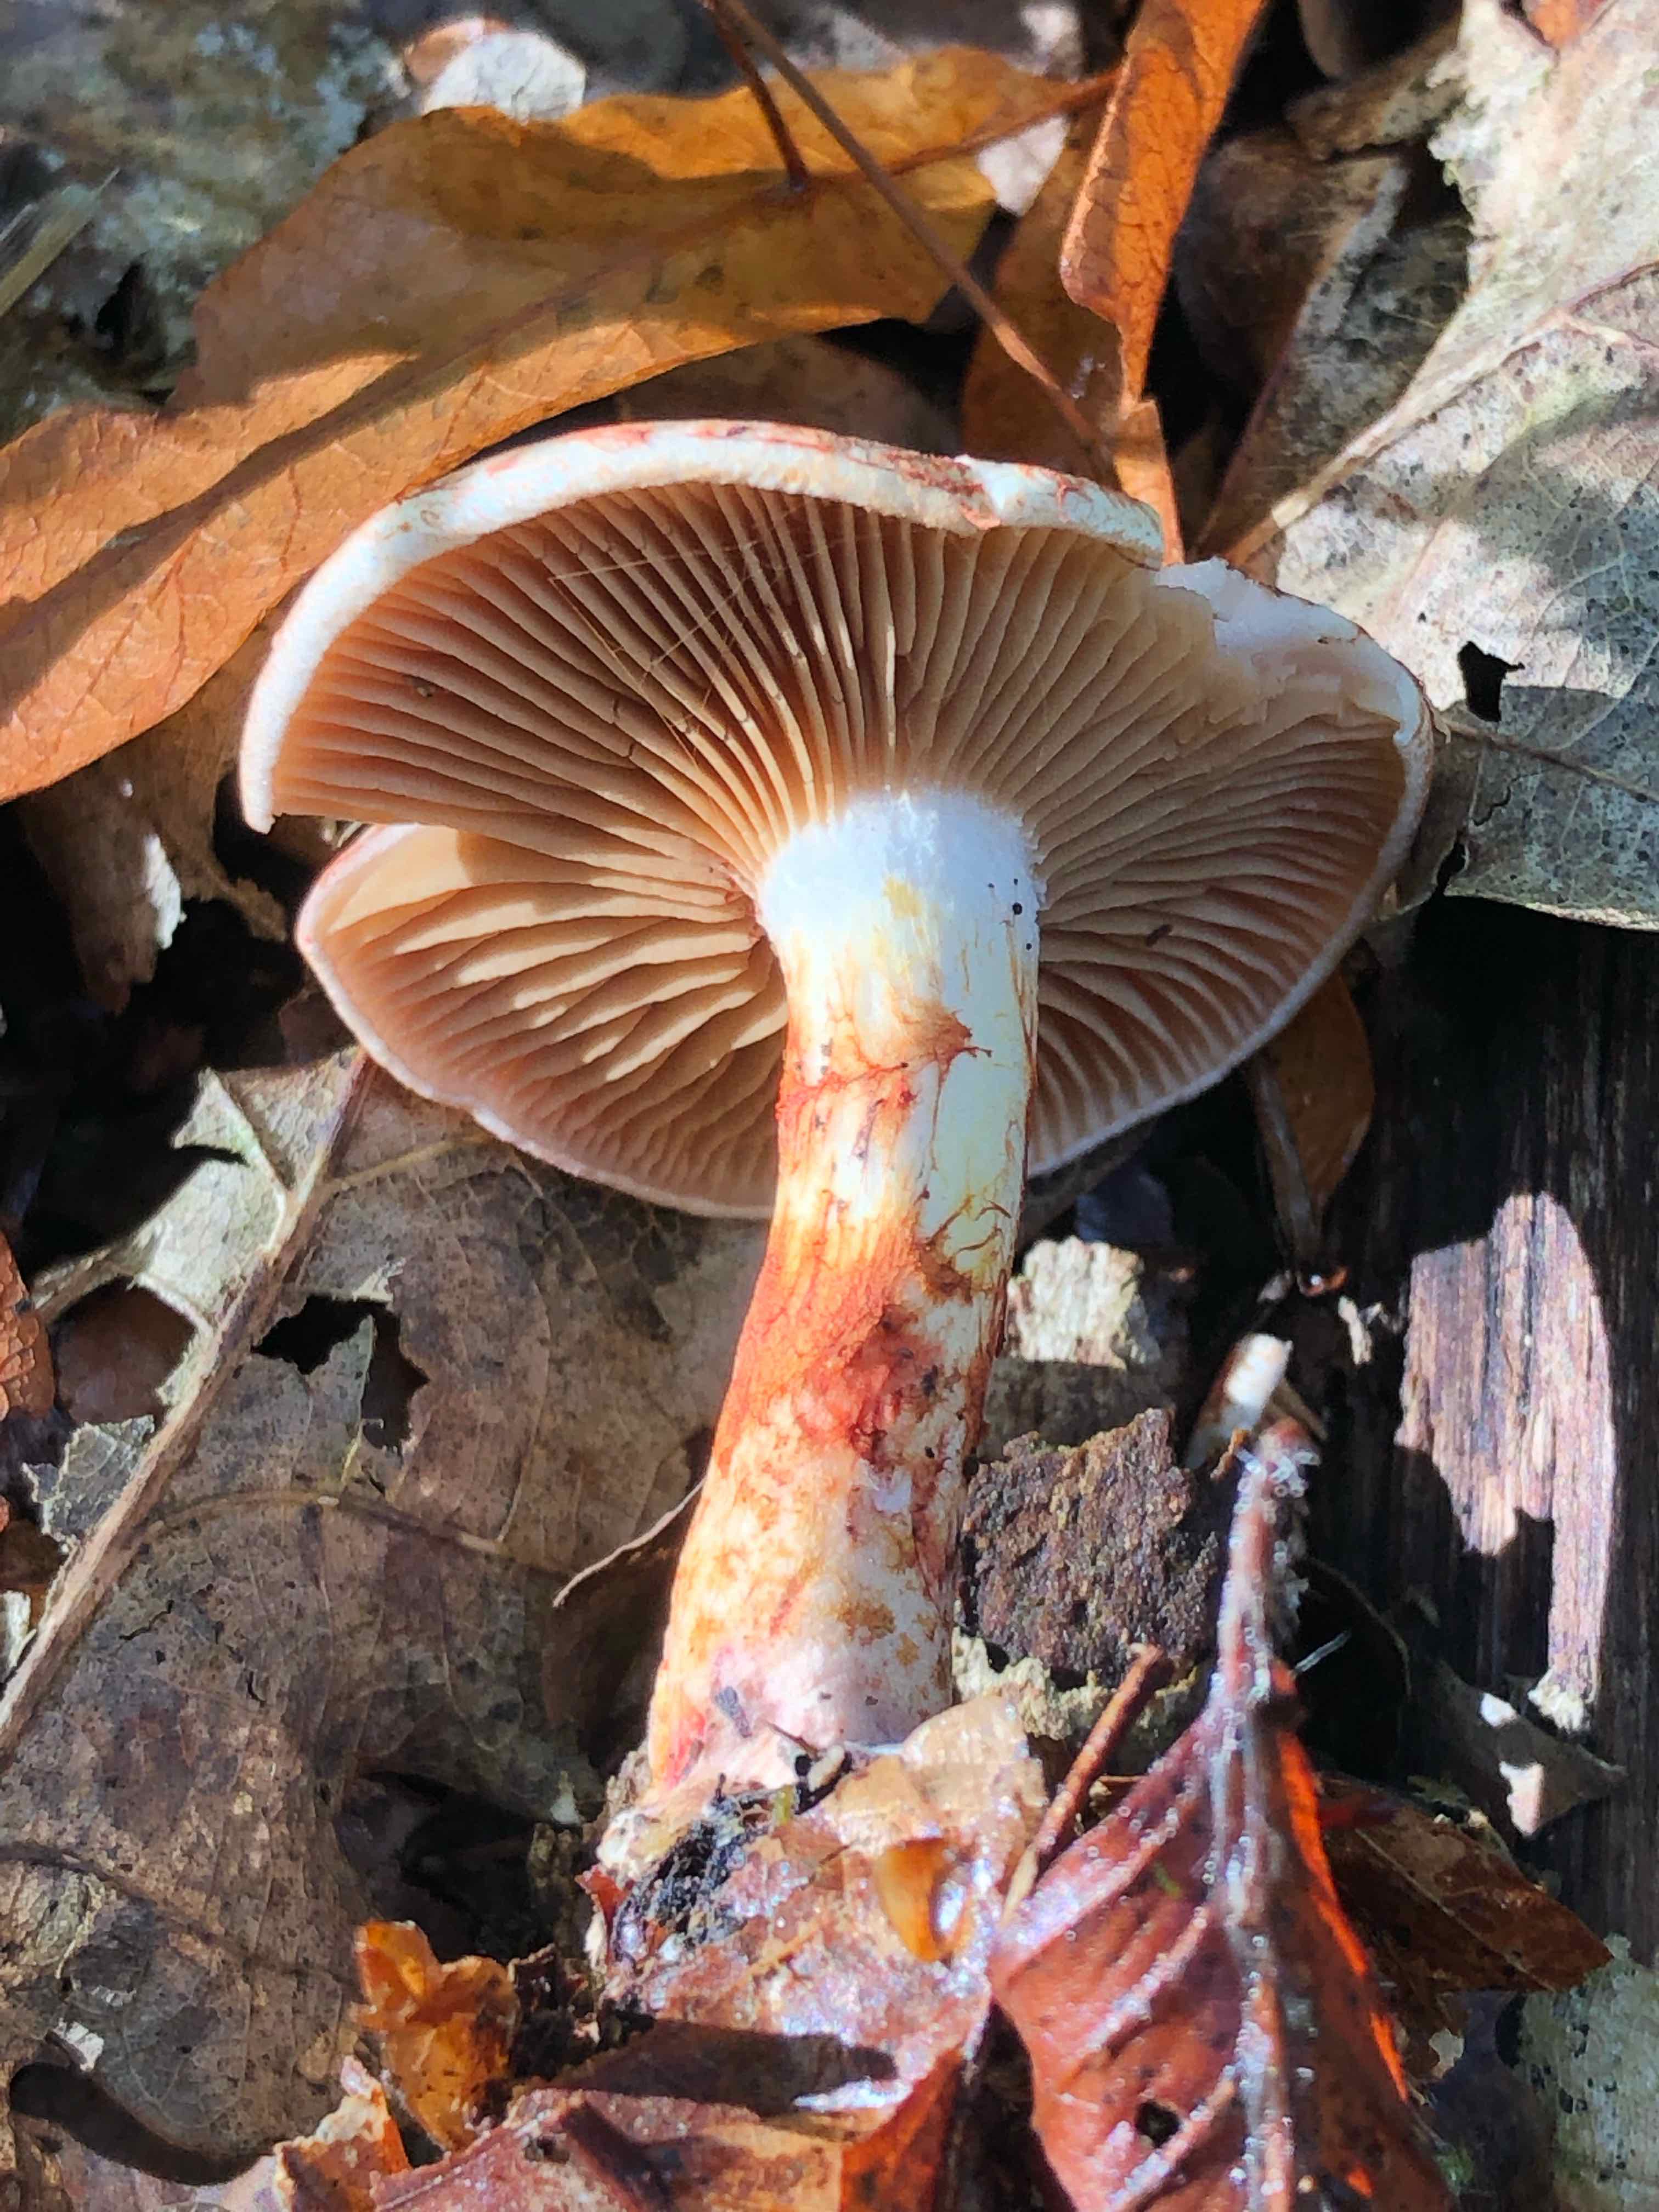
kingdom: Fungi
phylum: Basidiomycota
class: Agaricomycetes
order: Agaricales
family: Cortinariaceae
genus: Cortinarius
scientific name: Cortinarius bolaris
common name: cinnoberskællet slørhat
